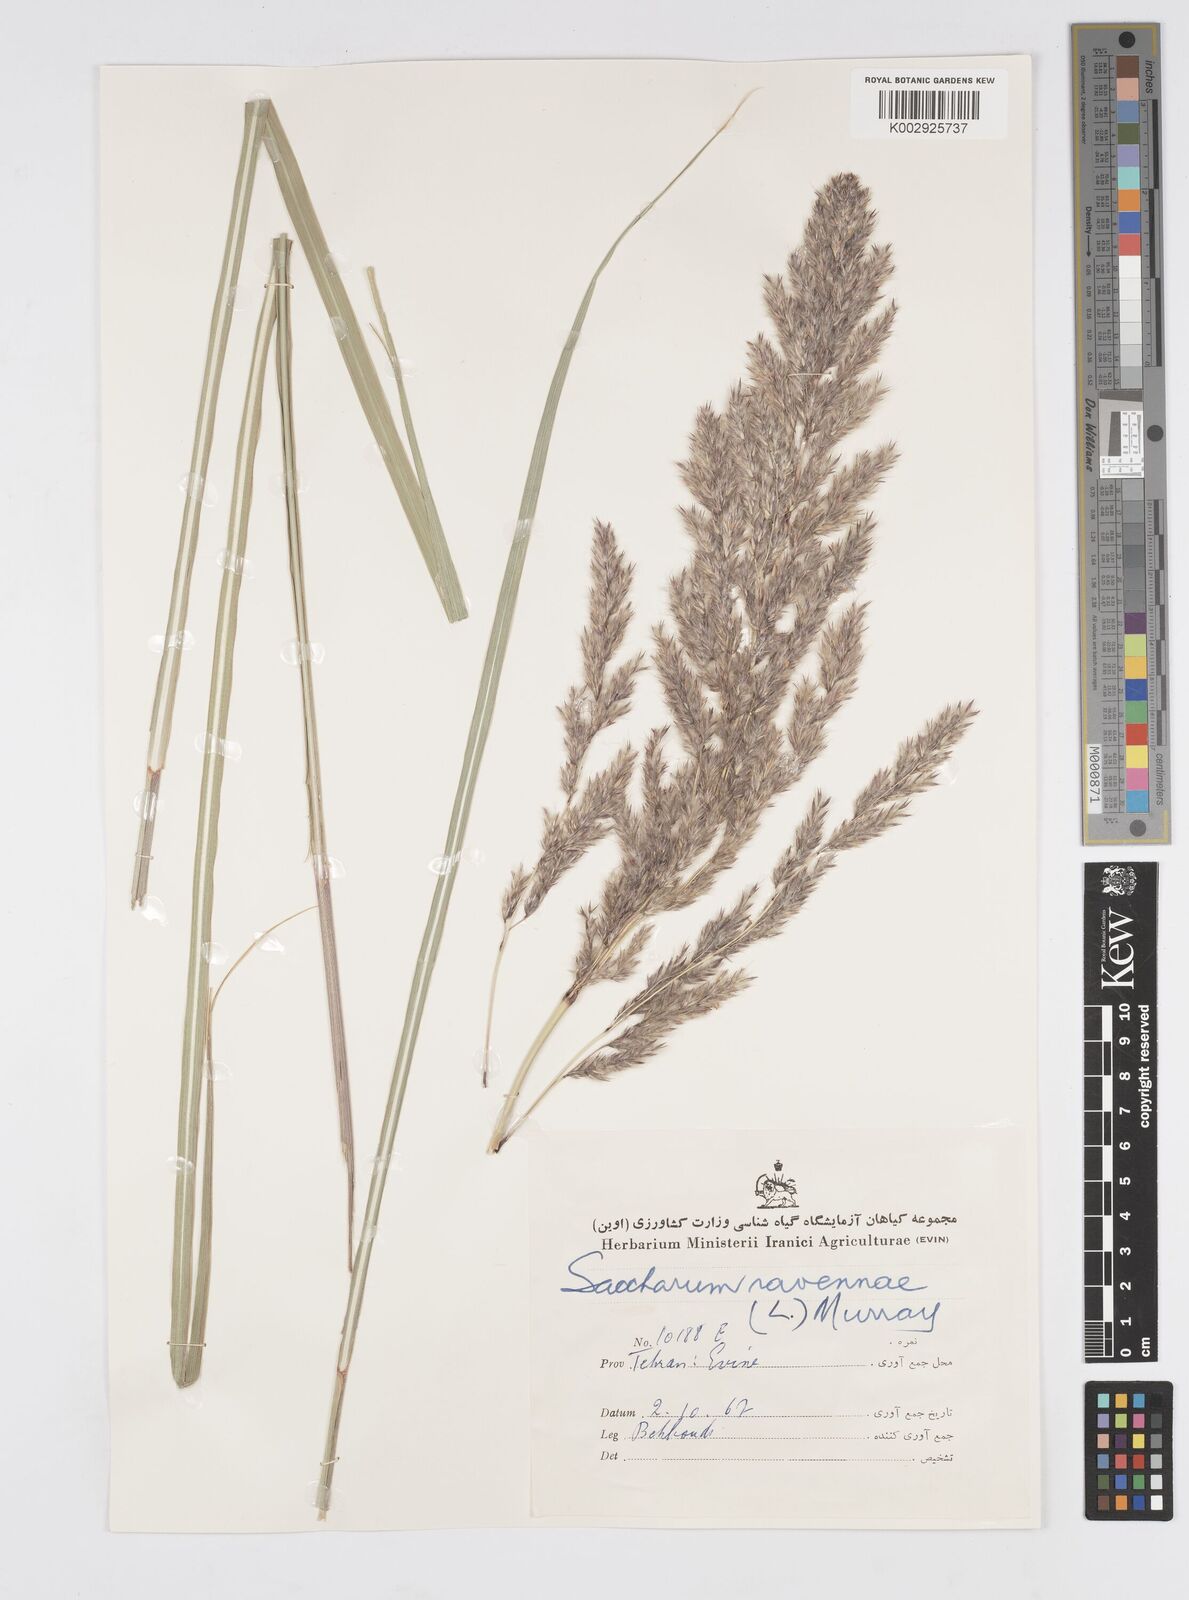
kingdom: Plantae
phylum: Tracheophyta
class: Liliopsida
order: Poales
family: Poaceae
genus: Tripidium
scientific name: Tripidium ravennae
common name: Ravenna grass
